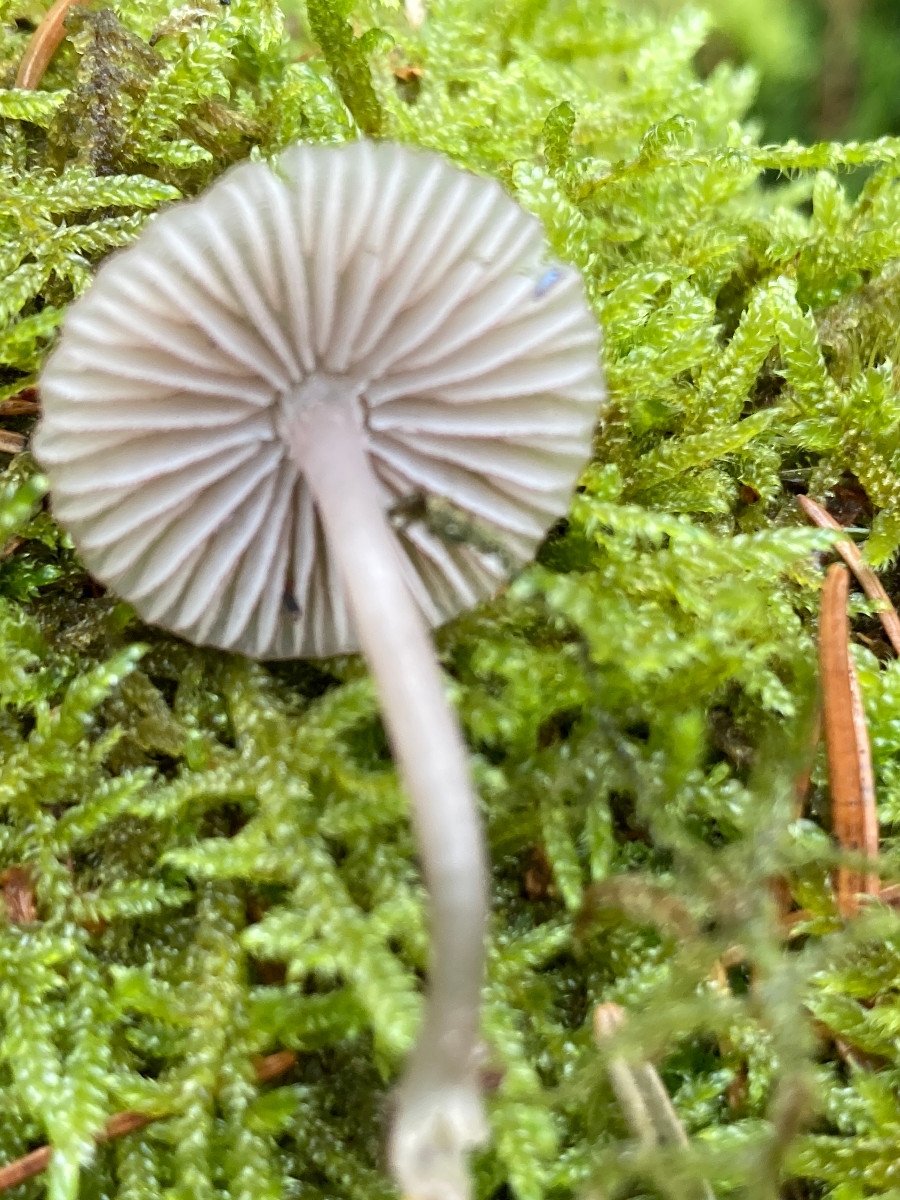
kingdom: Fungi
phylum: Basidiomycota
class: Agaricomycetes
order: Agaricales
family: Mycenaceae
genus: Mycena
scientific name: Mycena
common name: huesvamp
